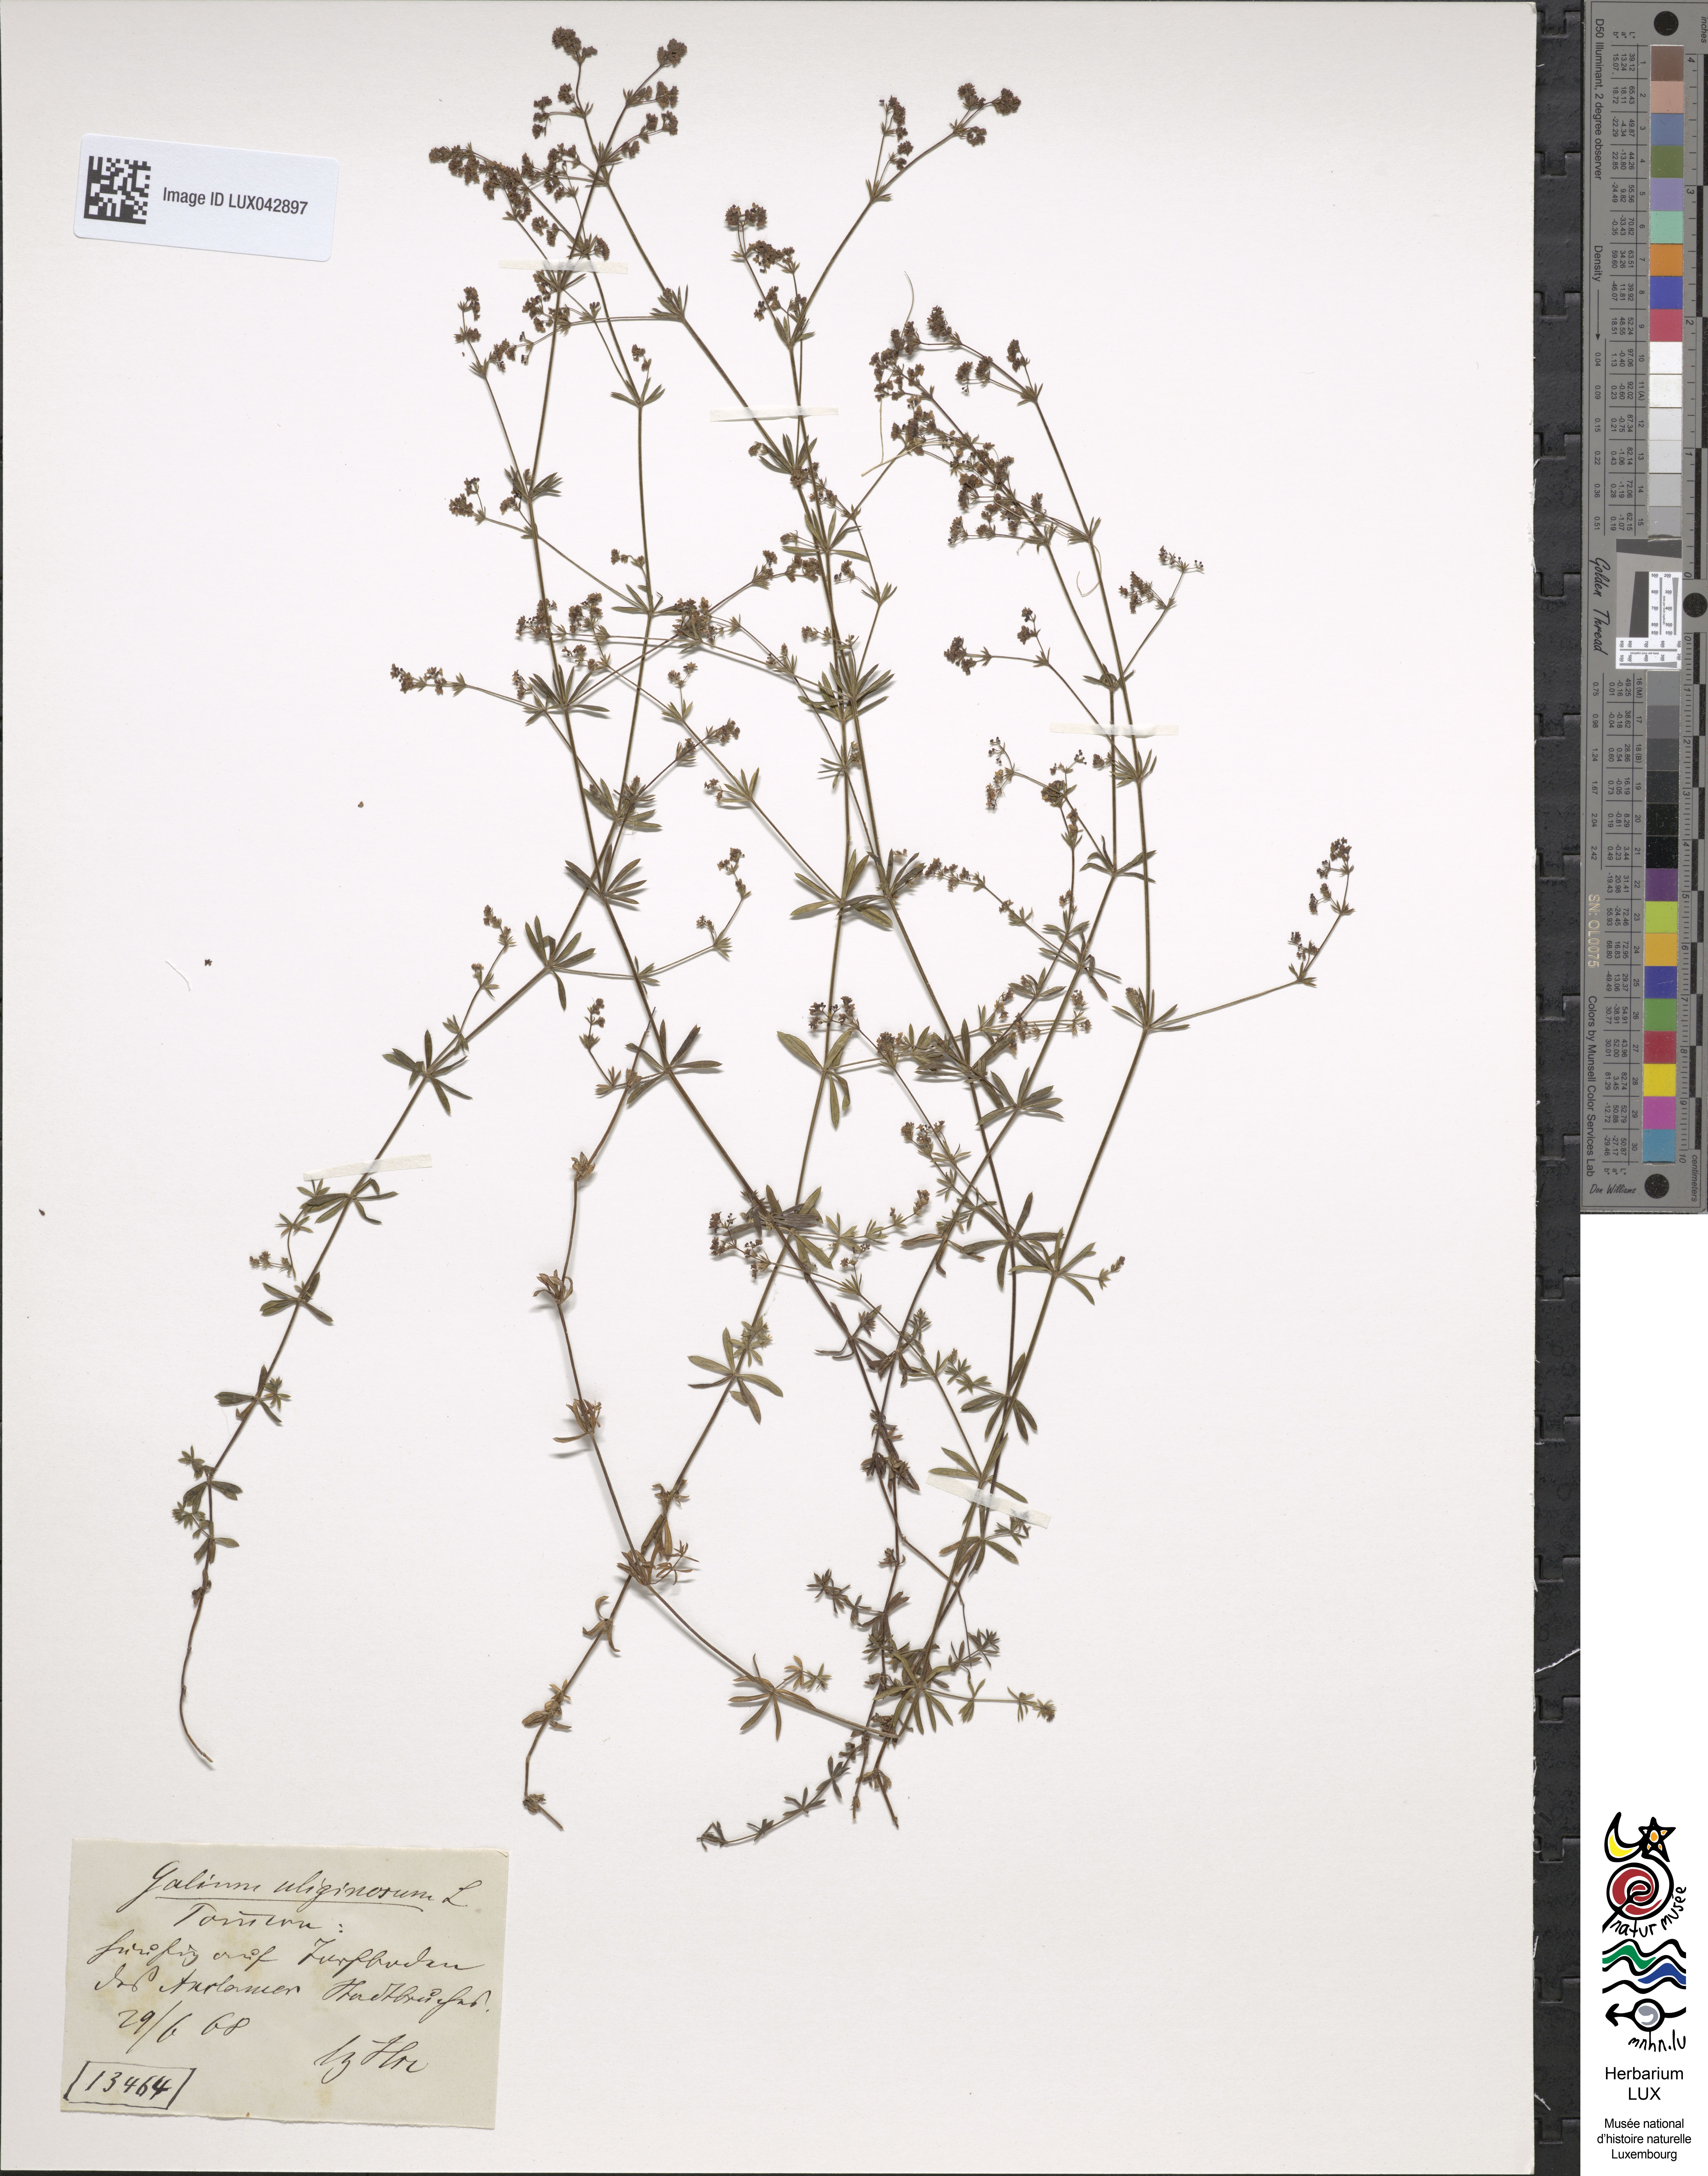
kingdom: Plantae
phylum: Tracheophyta
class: Magnoliopsida
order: Gentianales
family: Rubiaceae
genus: Galium
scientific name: Galium uliginosum
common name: Fen bedstraw
